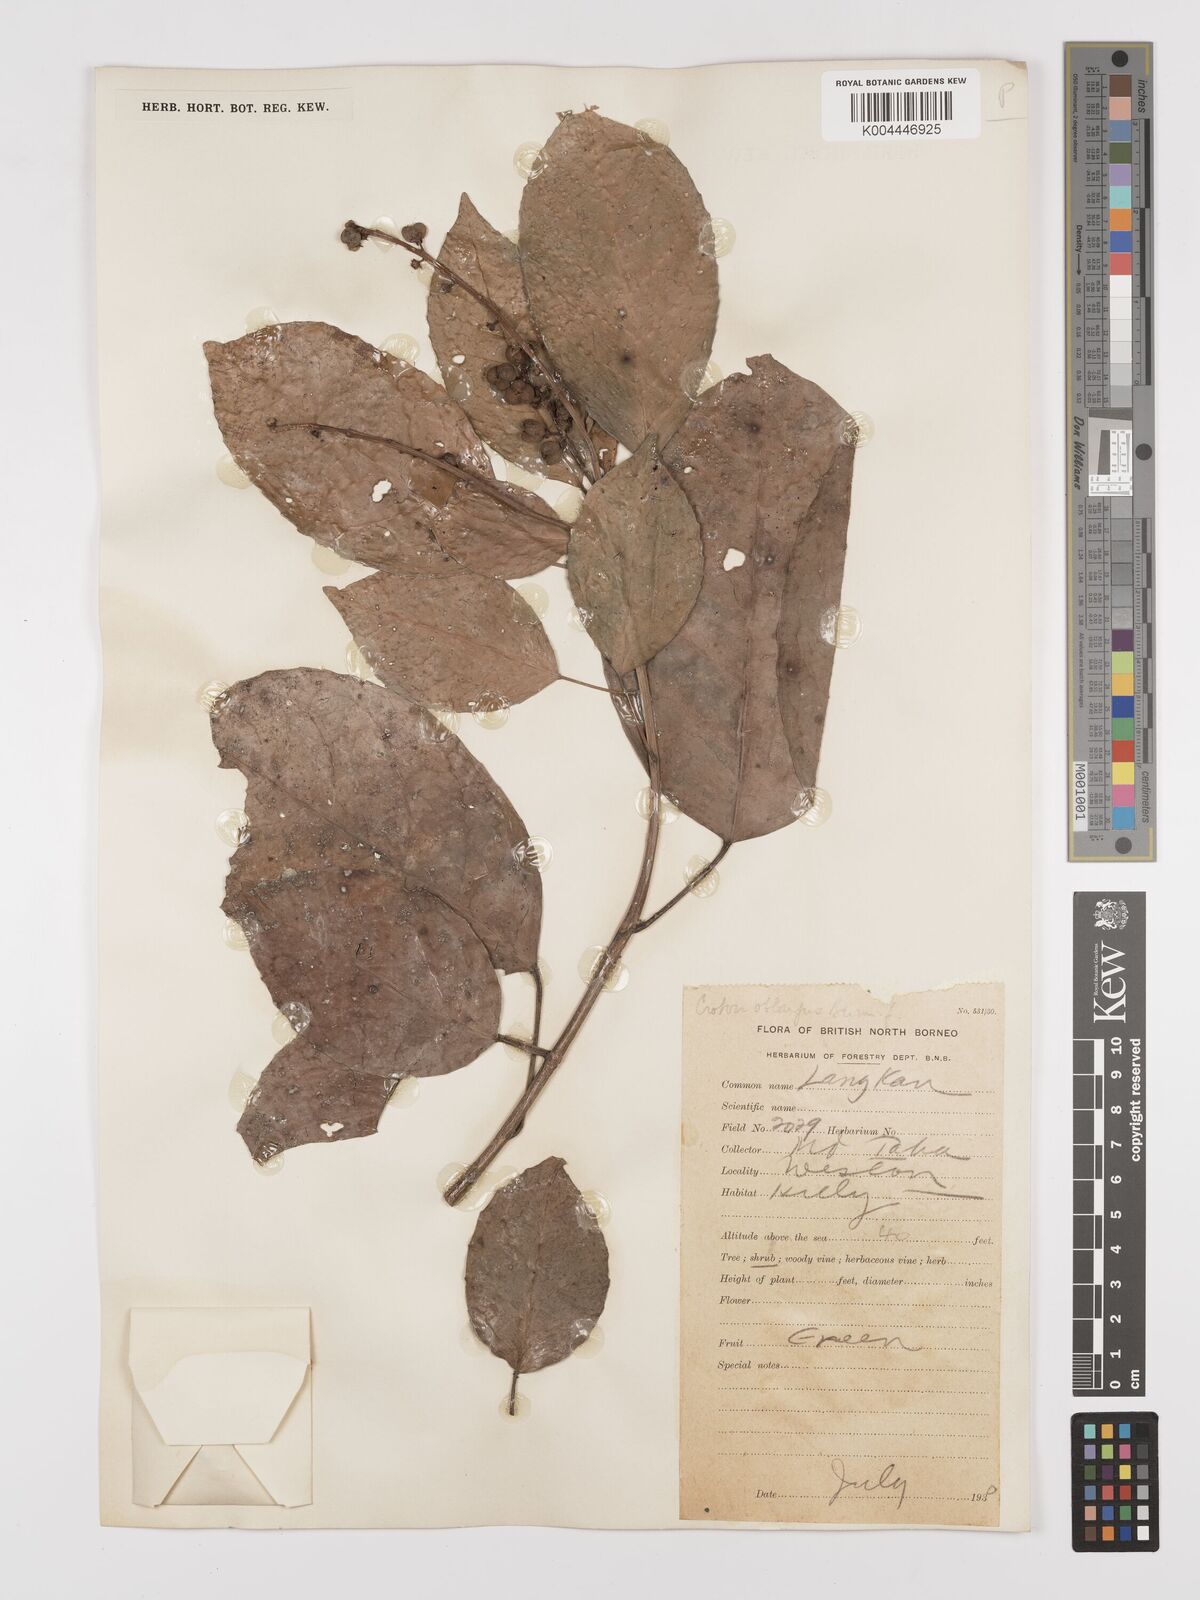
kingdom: Plantae
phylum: Tracheophyta
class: Magnoliopsida
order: Malpighiales
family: Euphorbiaceae
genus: Croton
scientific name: Croton oblongus
